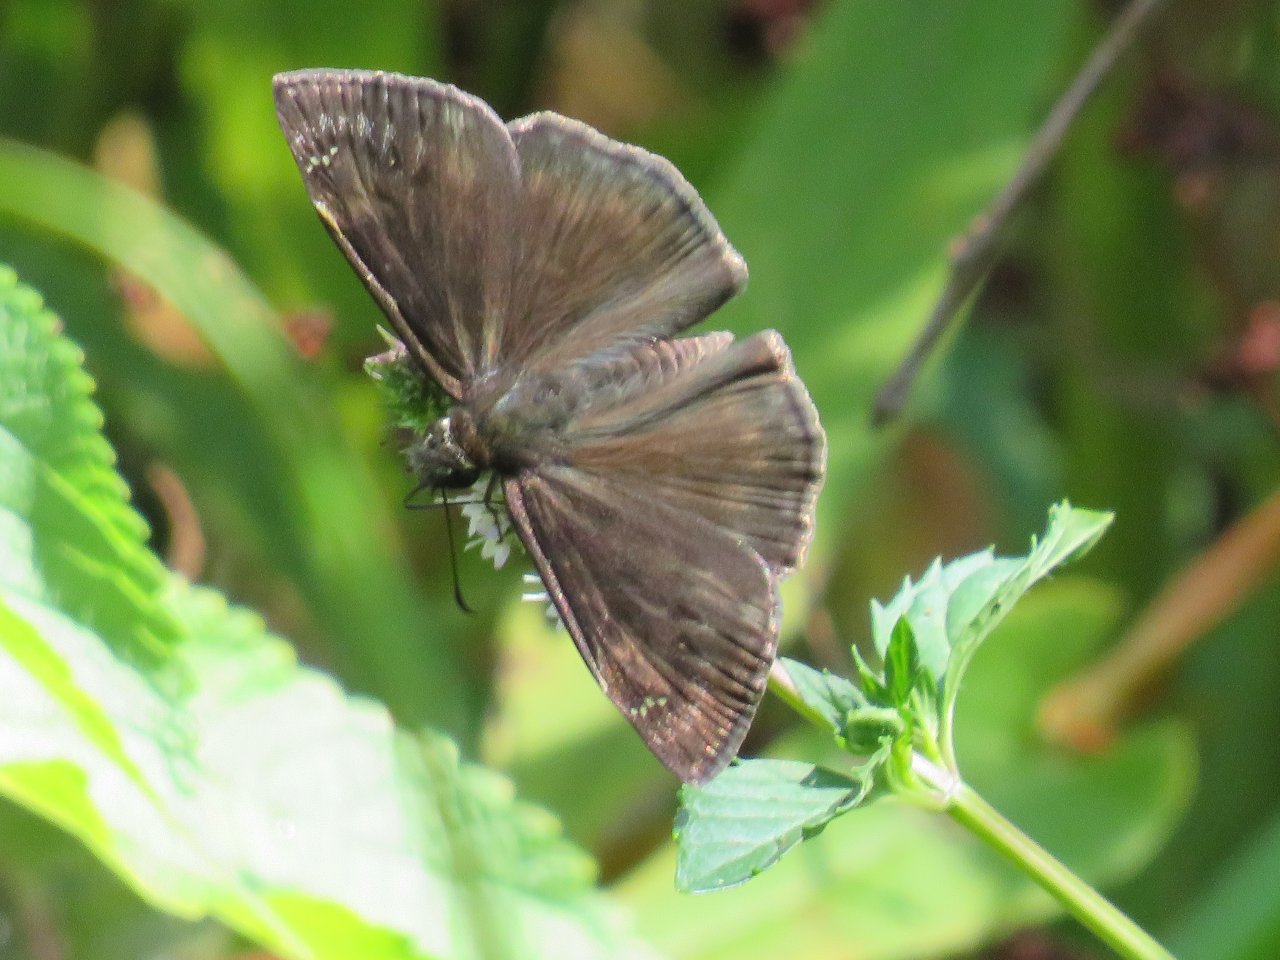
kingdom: Animalia
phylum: Arthropoda
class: Insecta
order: Lepidoptera
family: Hesperiidae
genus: Gesta
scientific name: Gesta
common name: Wild Indigo Duskywing
